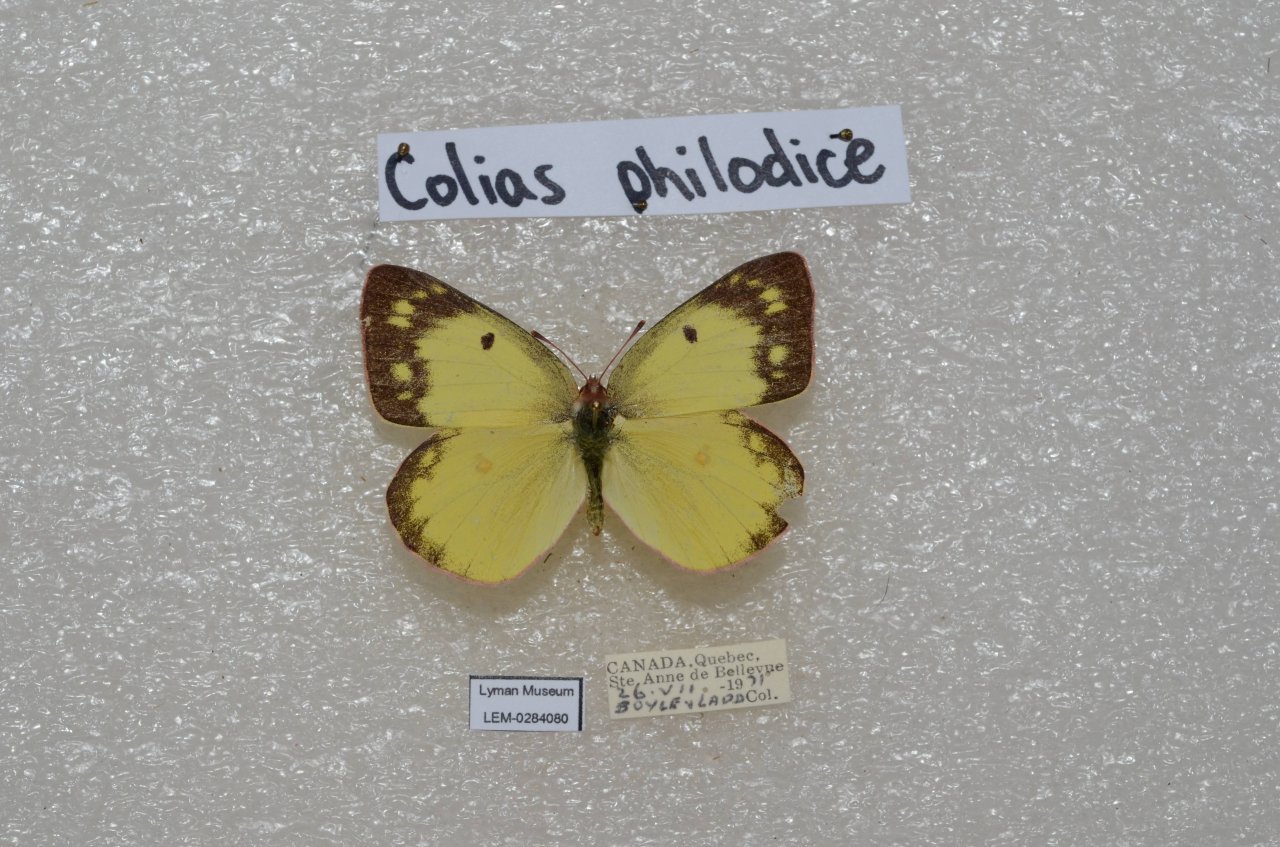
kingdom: Animalia
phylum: Arthropoda
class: Insecta
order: Lepidoptera
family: Pieridae
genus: Colias
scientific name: Colias philodice
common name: Clouded Sulphur
